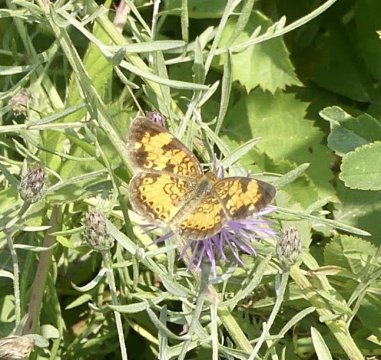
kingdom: Animalia
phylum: Arthropoda
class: Insecta
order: Lepidoptera
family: Nymphalidae
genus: Phyciodes
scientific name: Phyciodes tharos
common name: Pearl Crescent
